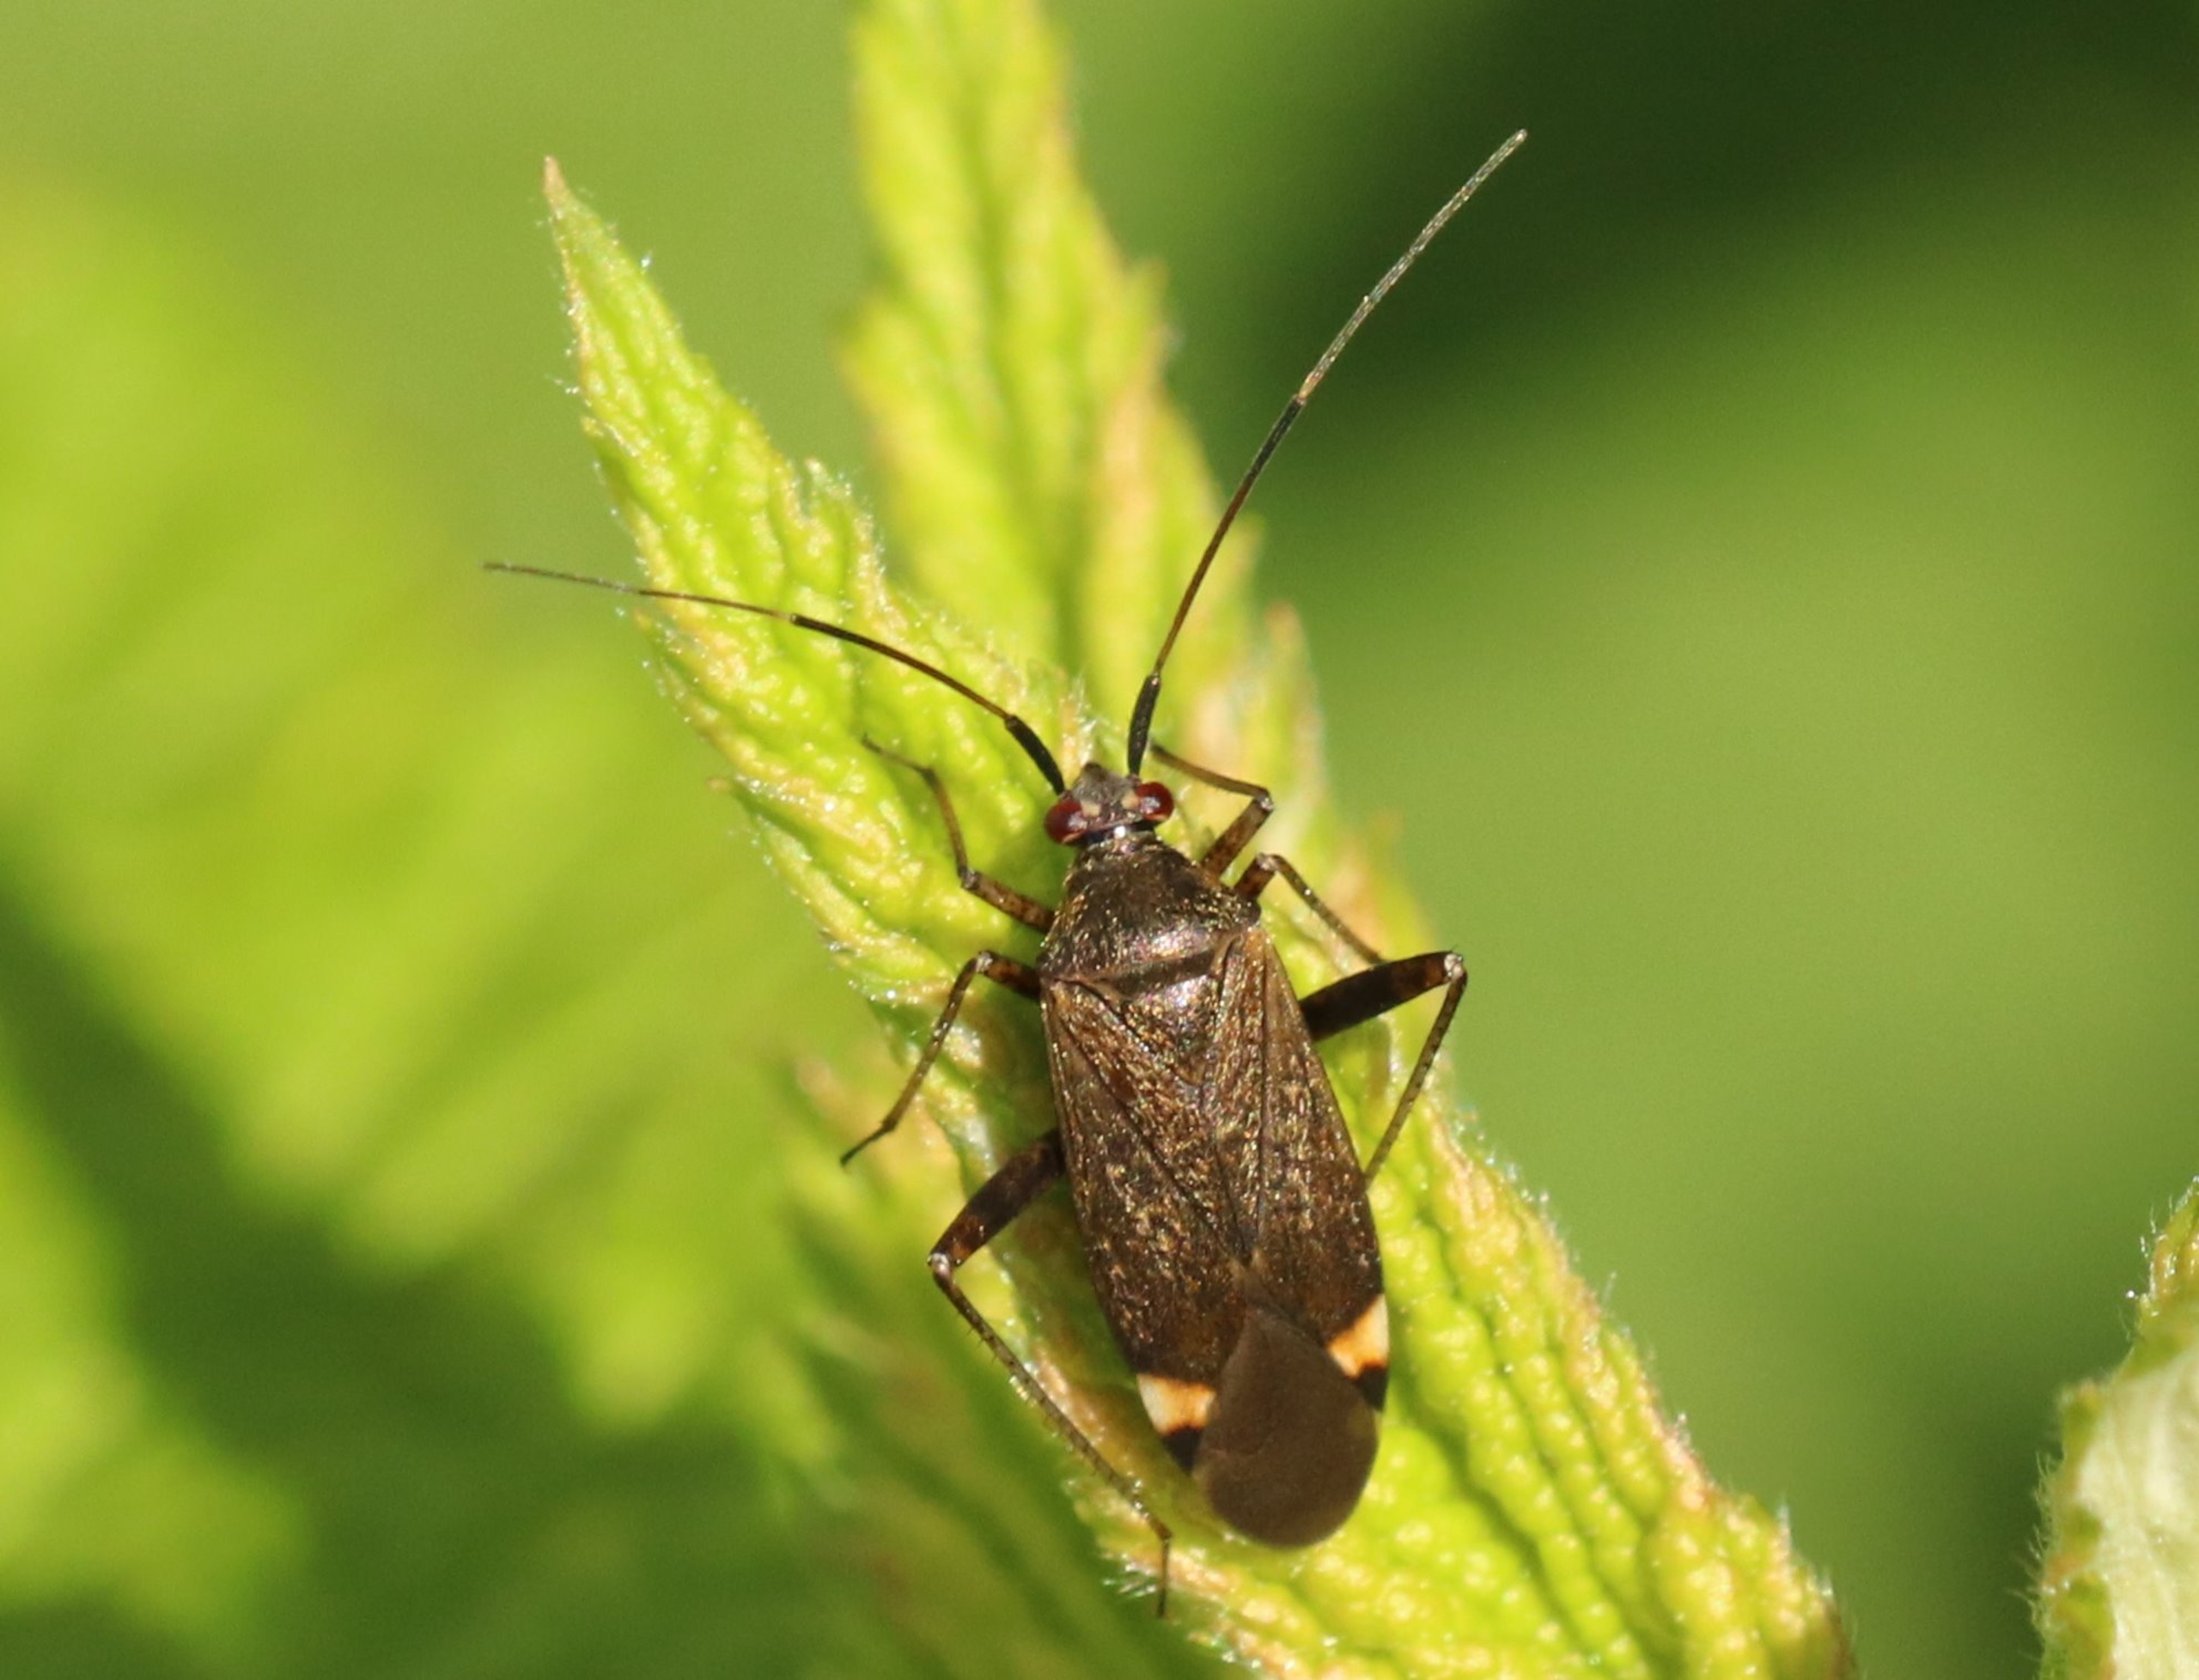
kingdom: Animalia
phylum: Arthropoda
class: Insecta
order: Hemiptera
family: Miridae
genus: Closterotomus
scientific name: Closterotomus fulvomaculatus
